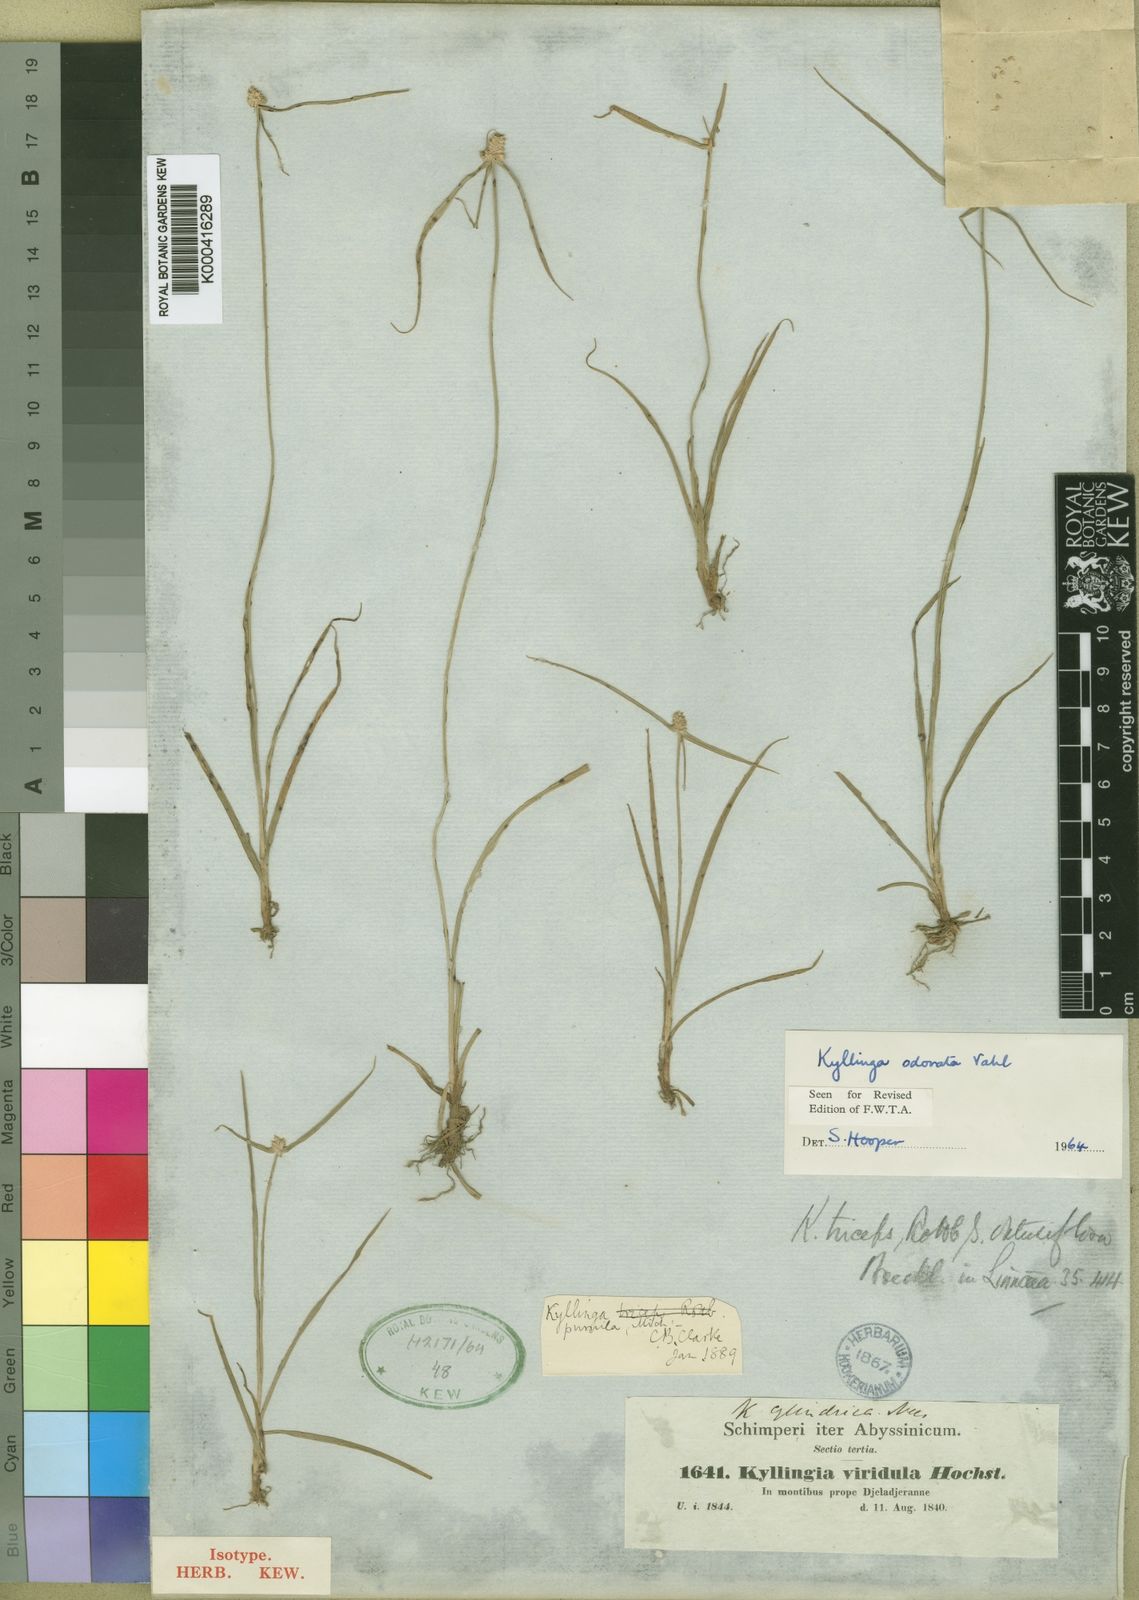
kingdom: Plantae
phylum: Tracheophyta
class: Liliopsida
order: Poales
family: Cyperaceae
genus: Cyperus
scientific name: Cyperus sesquiflorus
